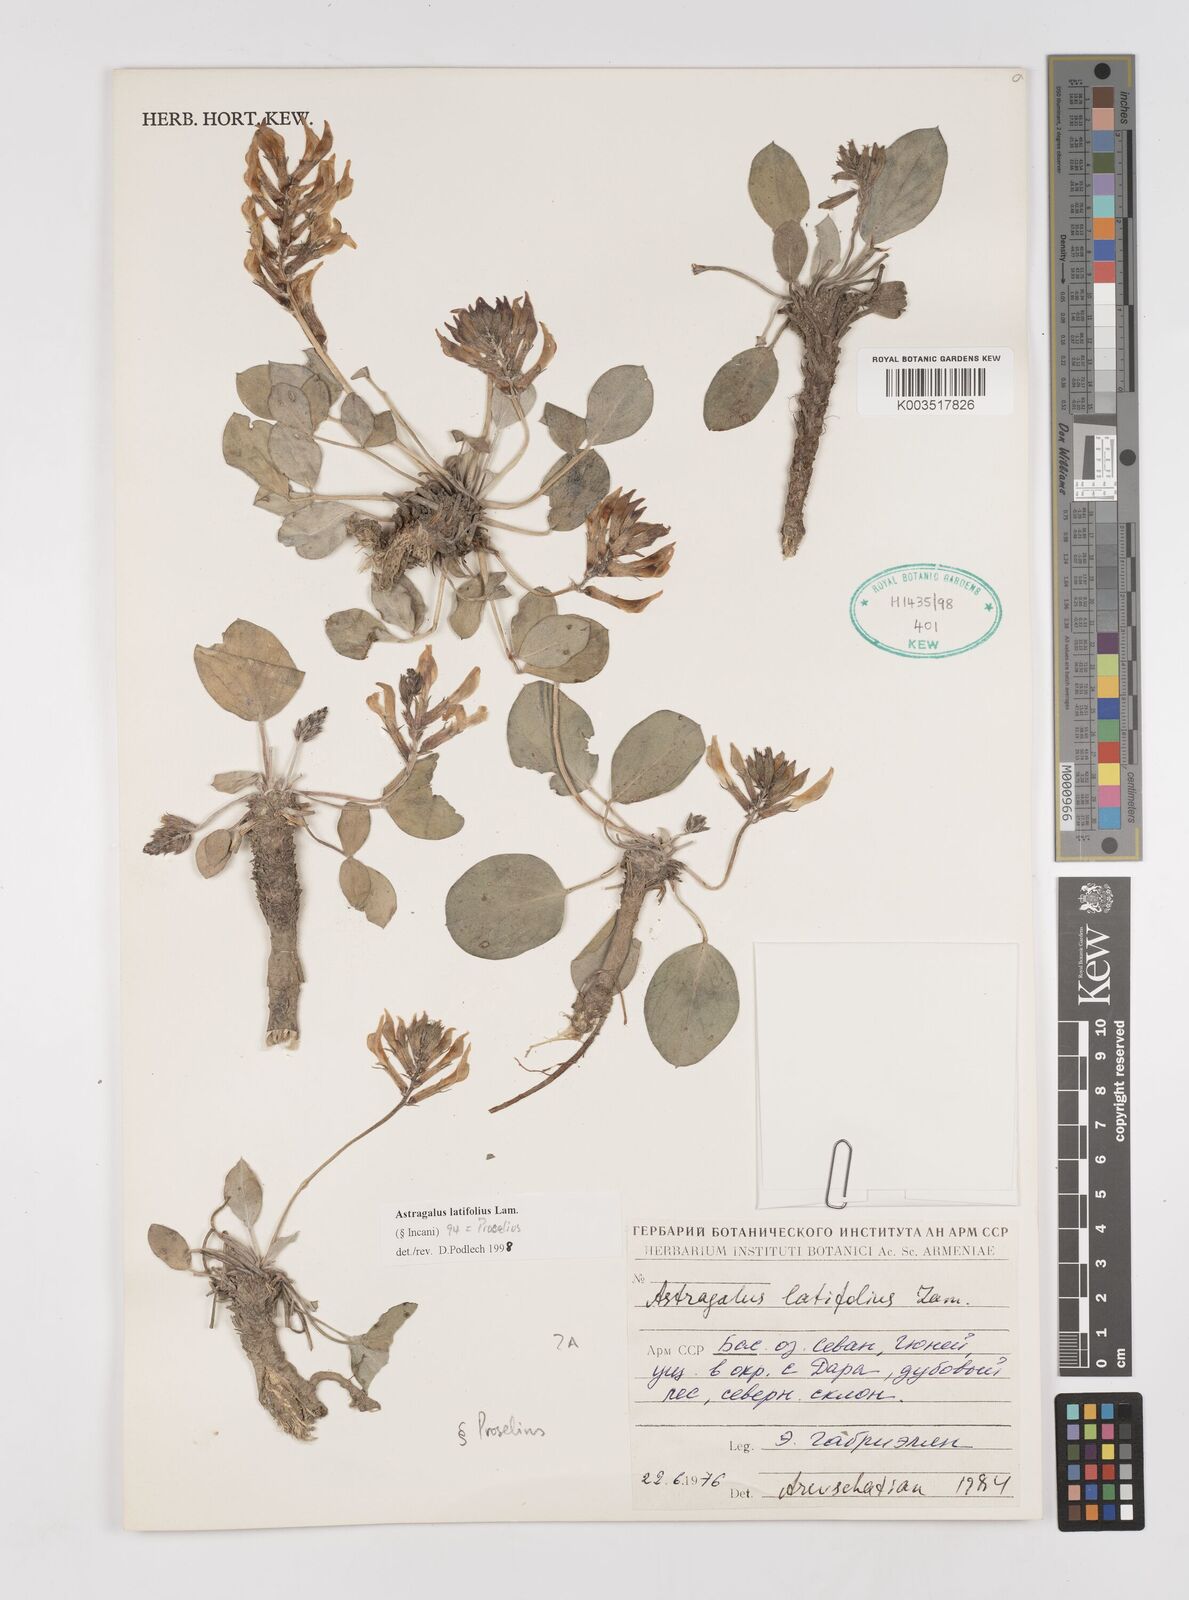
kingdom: Plantae
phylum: Tracheophyta
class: Magnoliopsida
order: Fabales
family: Fabaceae
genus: Astragalus
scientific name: Astragalus latifolius
